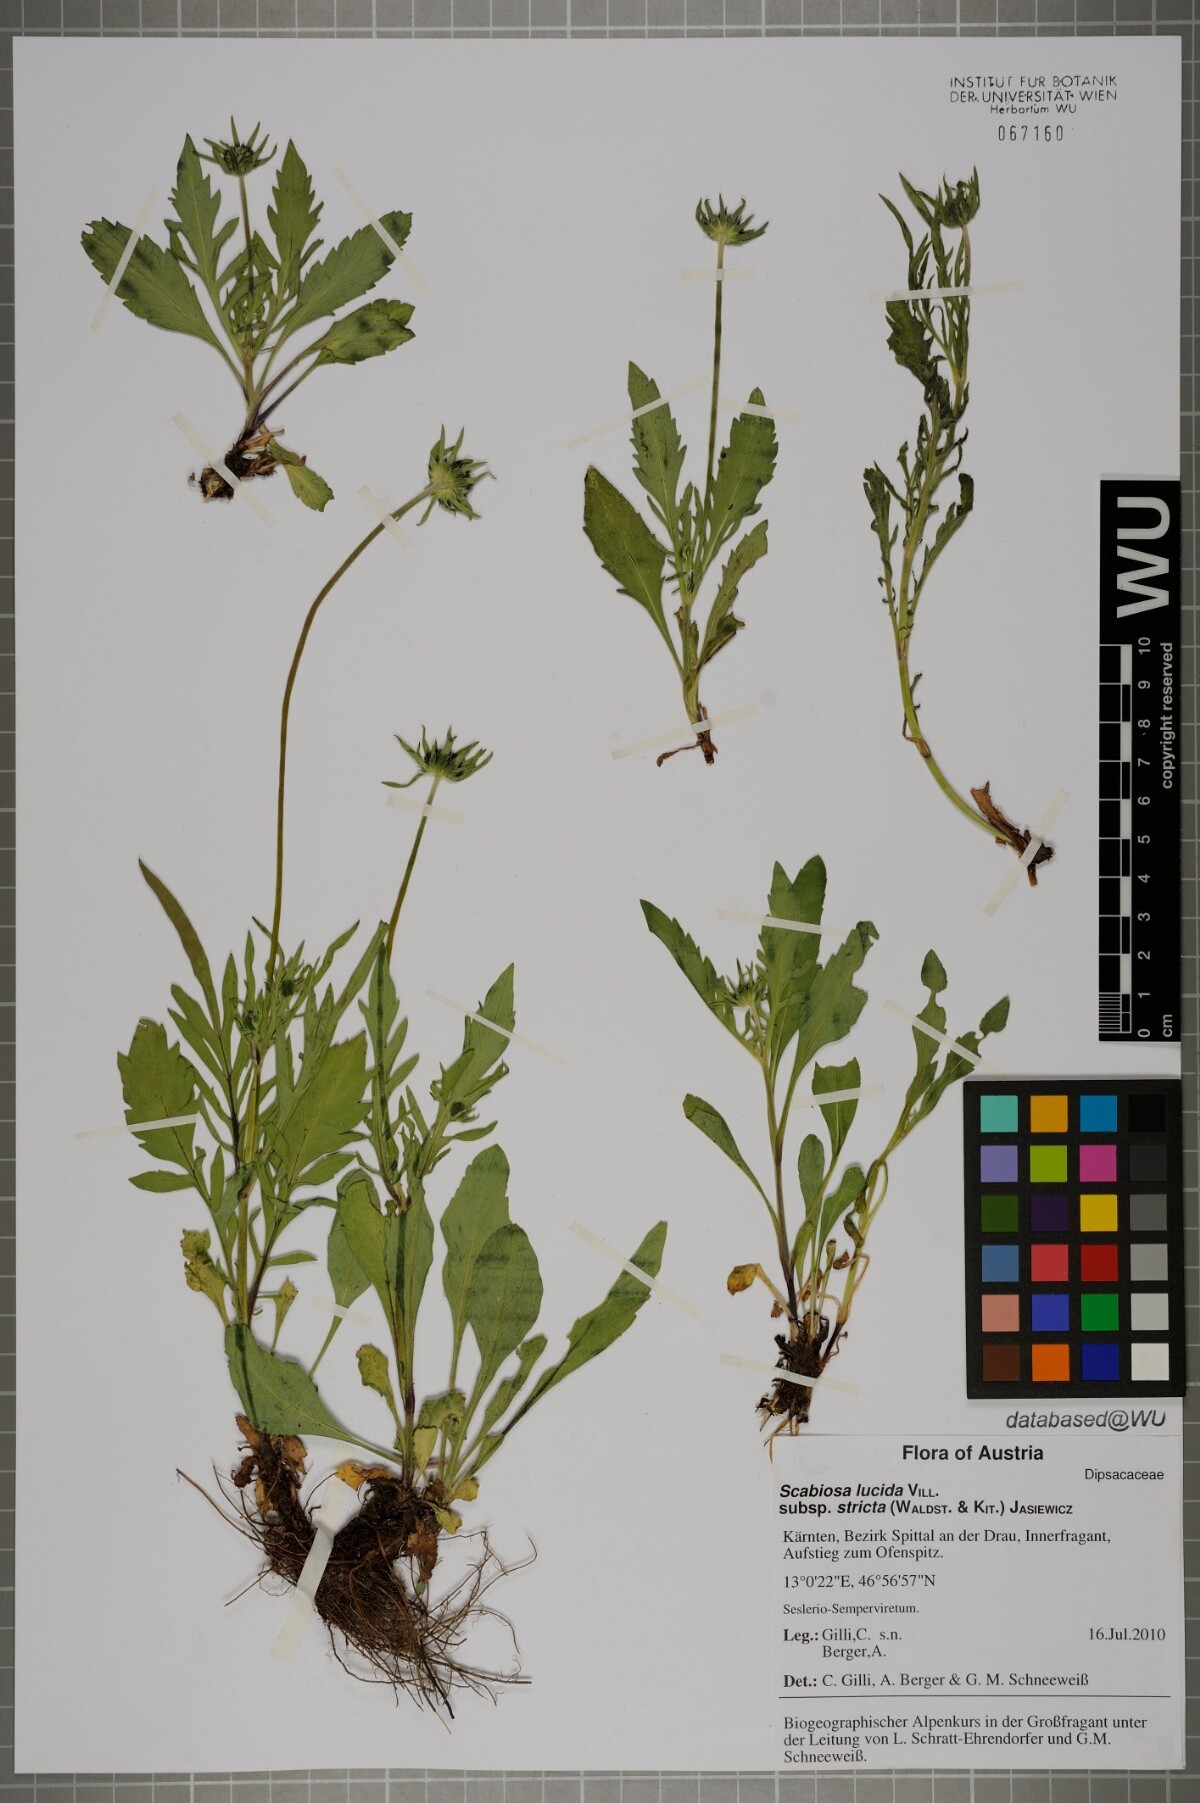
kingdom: Plantae
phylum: Tracheophyta
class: Magnoliopsida
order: Dipsacales
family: Caprifoliaceae
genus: Scabiosa
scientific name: Scabiosa lucida
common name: Shining scabious
